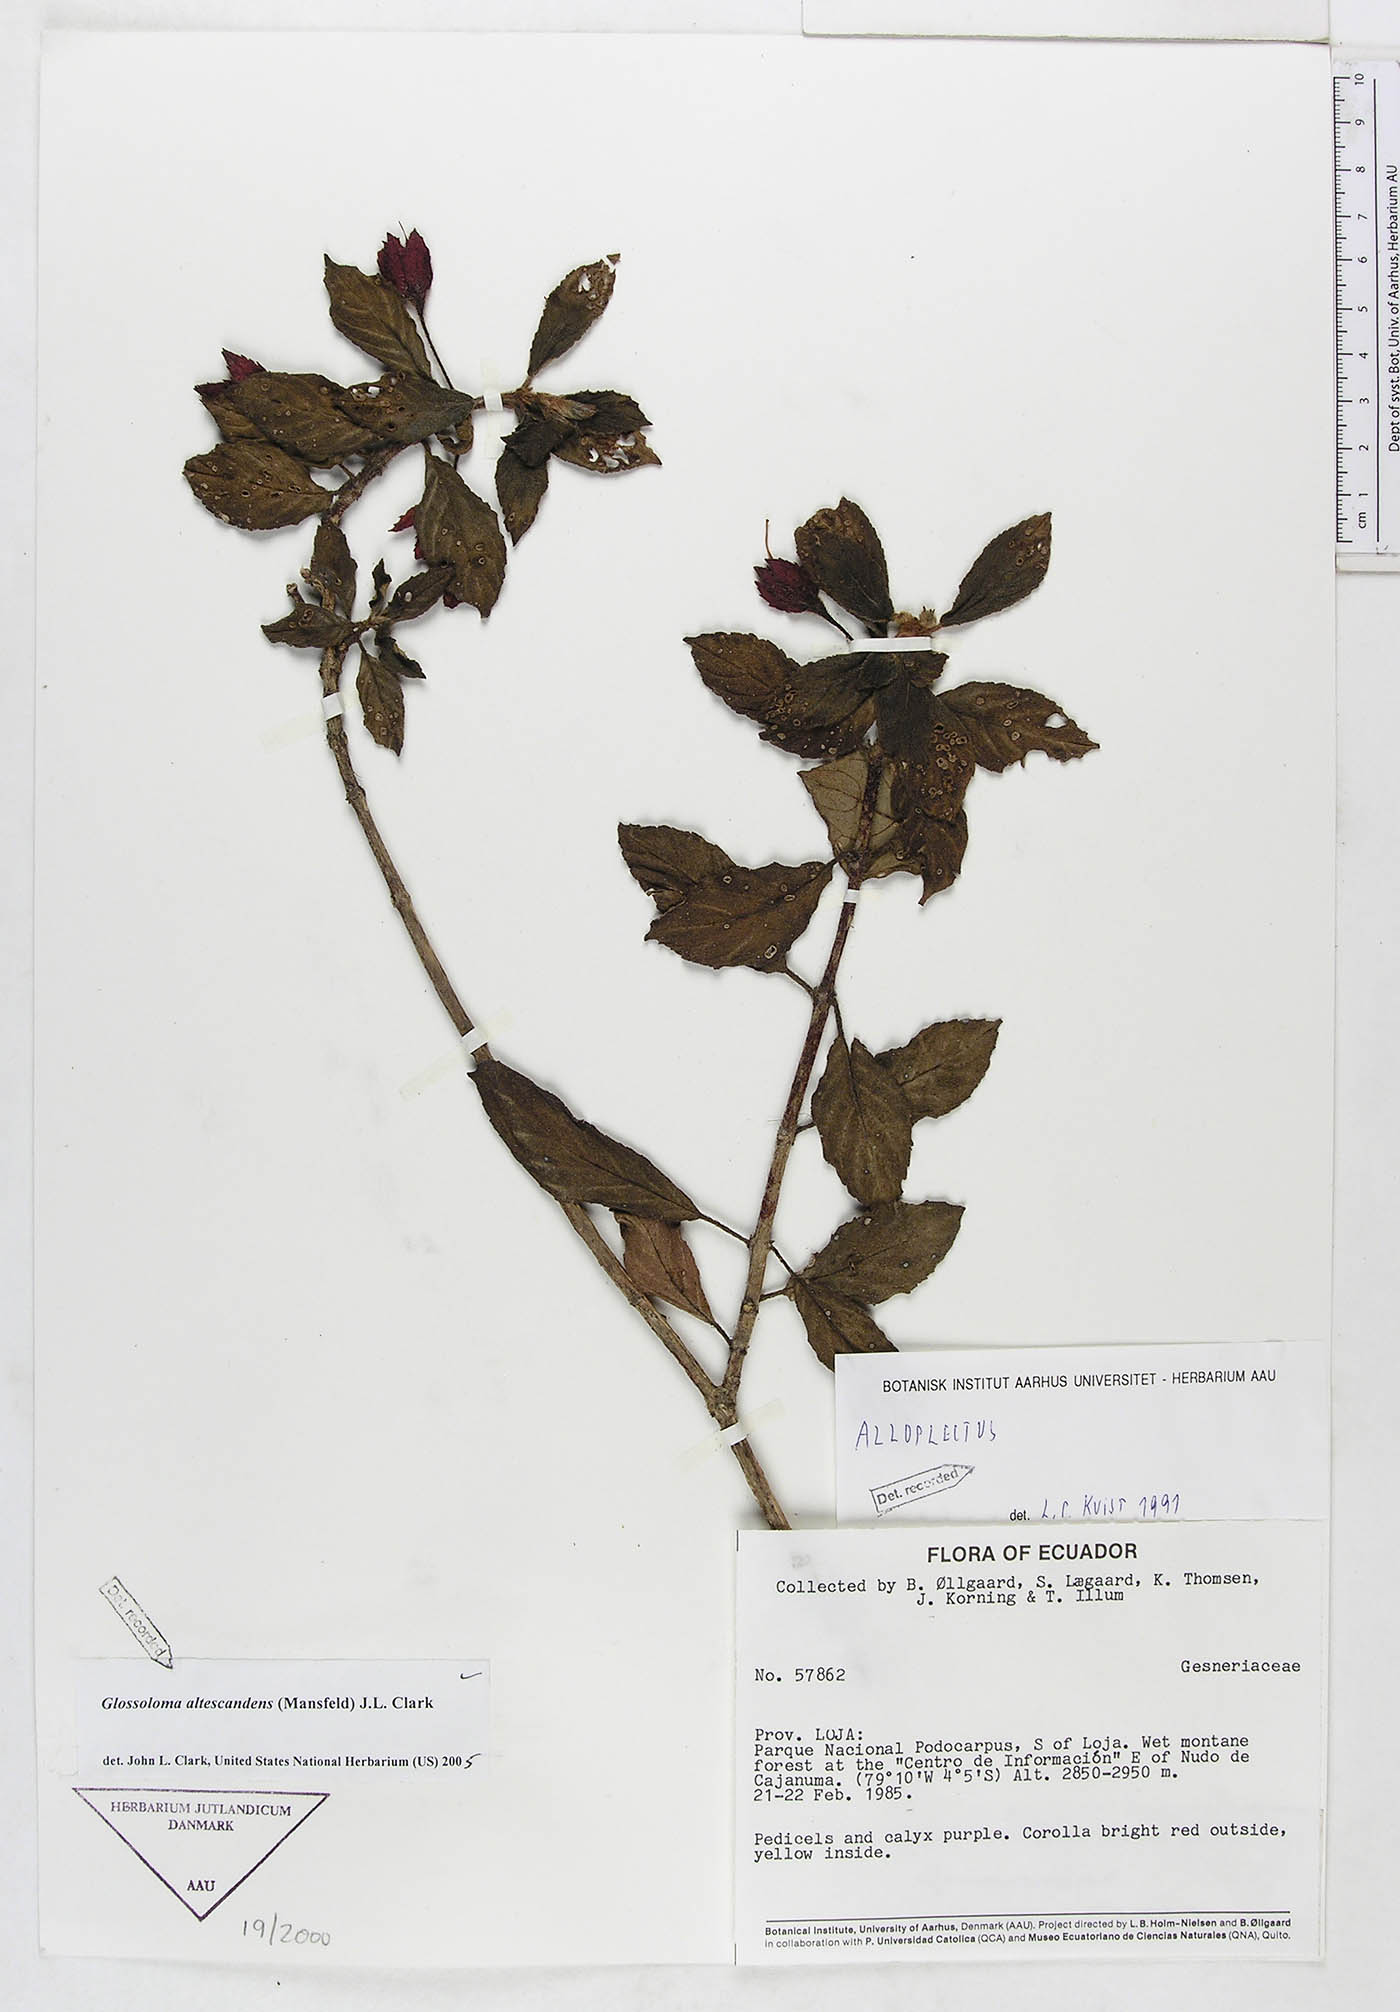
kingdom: Plantae
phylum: Tracheophyta
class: Magnoliopsida
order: Lamiales
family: Gesneriaceae
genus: Glossoloma
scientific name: Glossoloma altescandens
